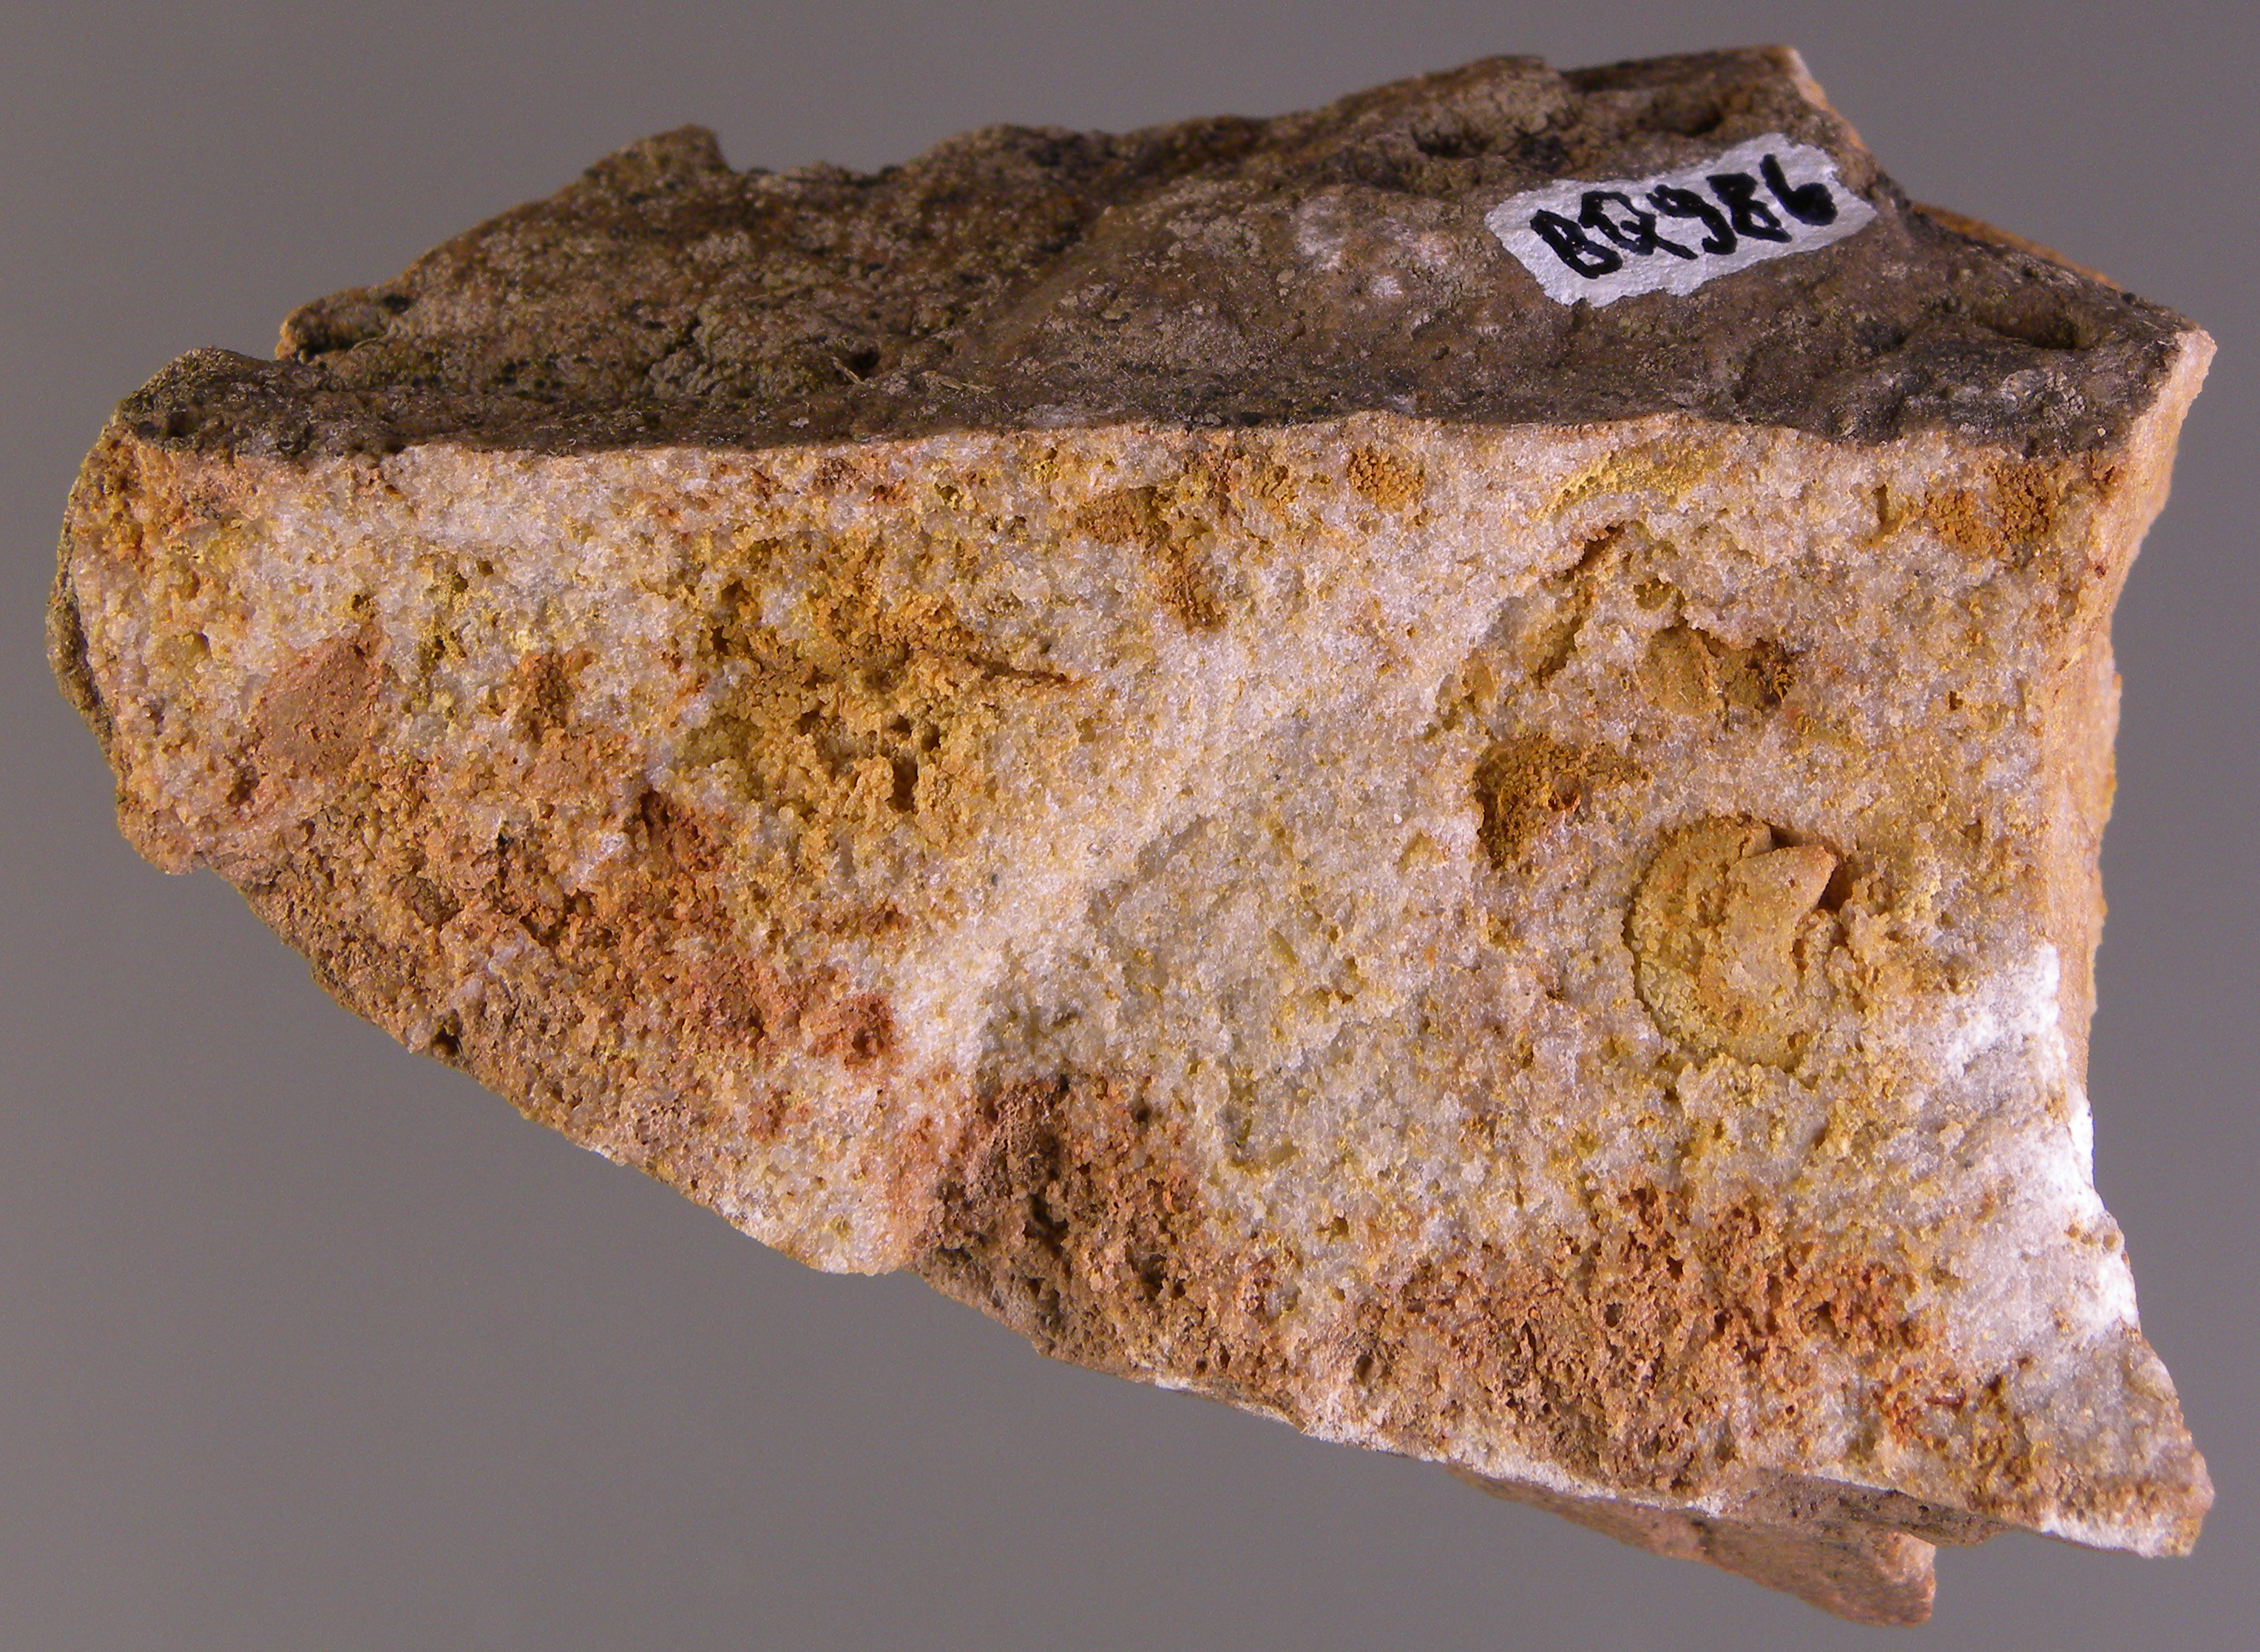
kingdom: Animalia
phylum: Brachiopoda
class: Craniata
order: Craniida
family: Craniidae
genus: Petrocrania
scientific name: Petrocrania
